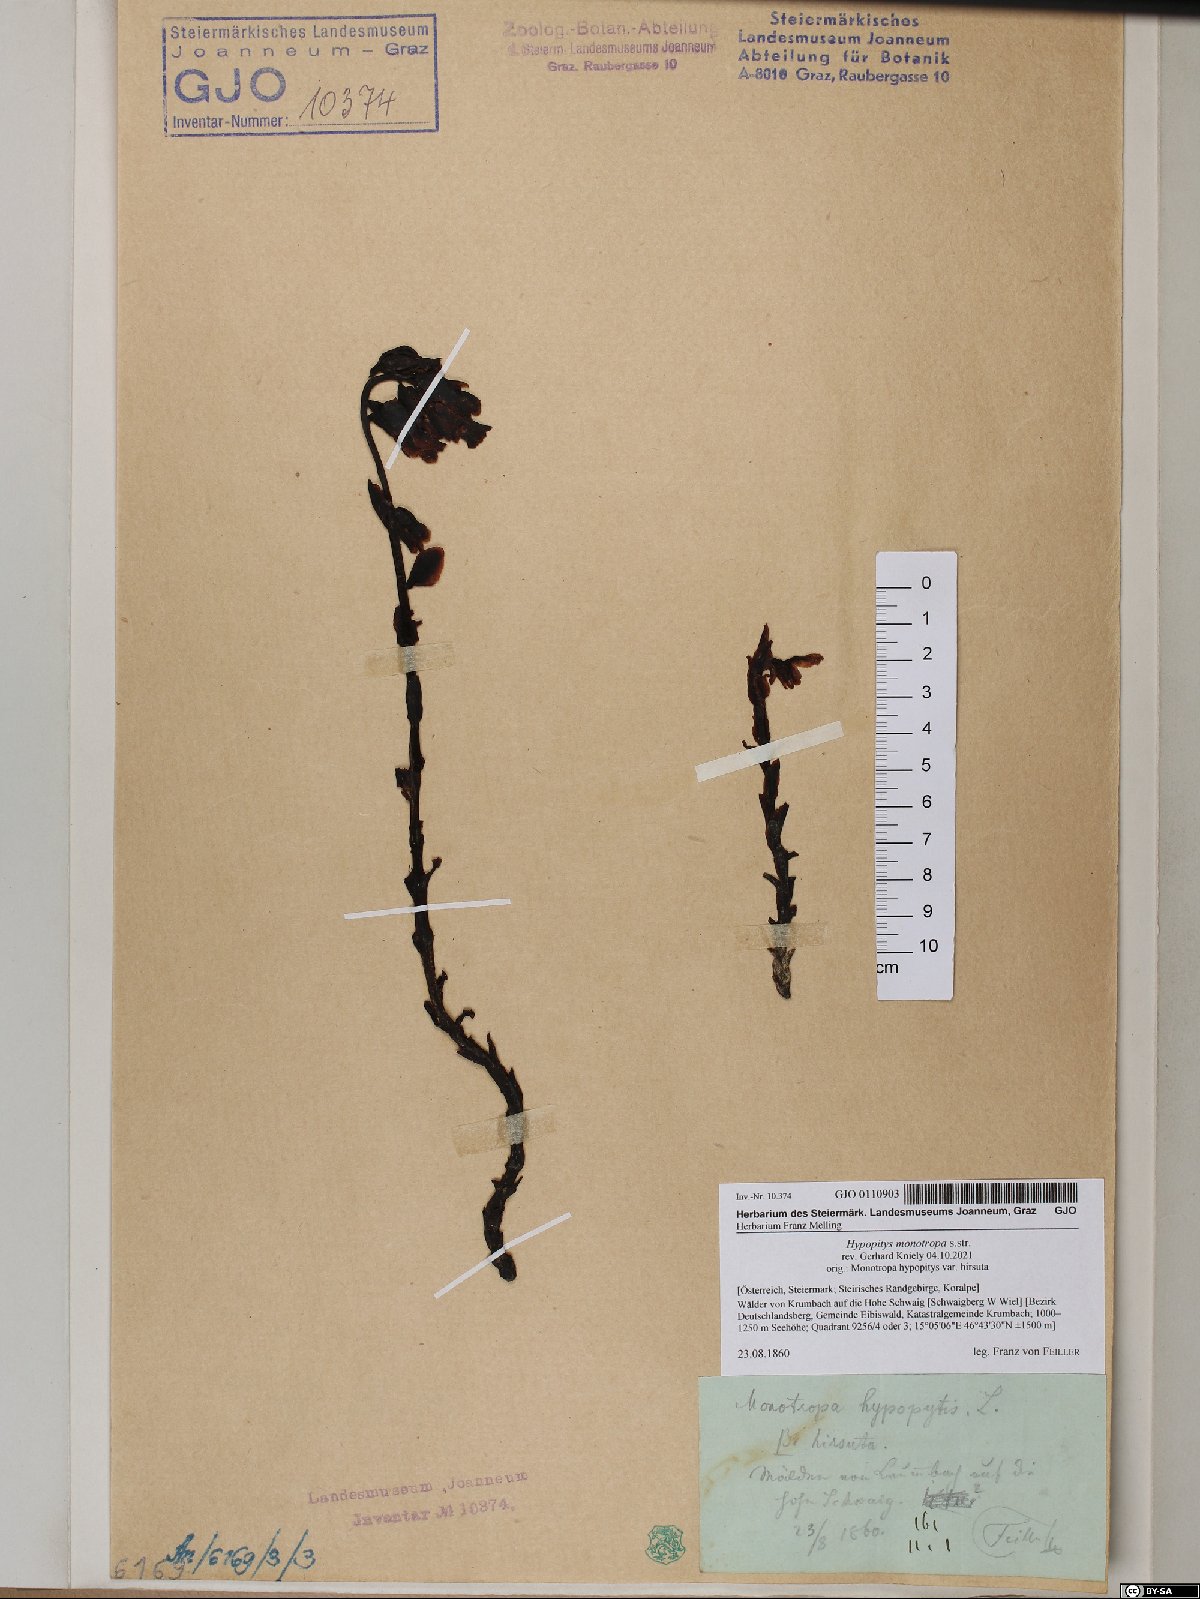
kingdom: Plantae
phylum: Tracheophyta
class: Magnoliopsida
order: Ericales
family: Ericaceae
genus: Hypopitys
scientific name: Hypopitys monotropa
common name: Yellow bird's-nest
